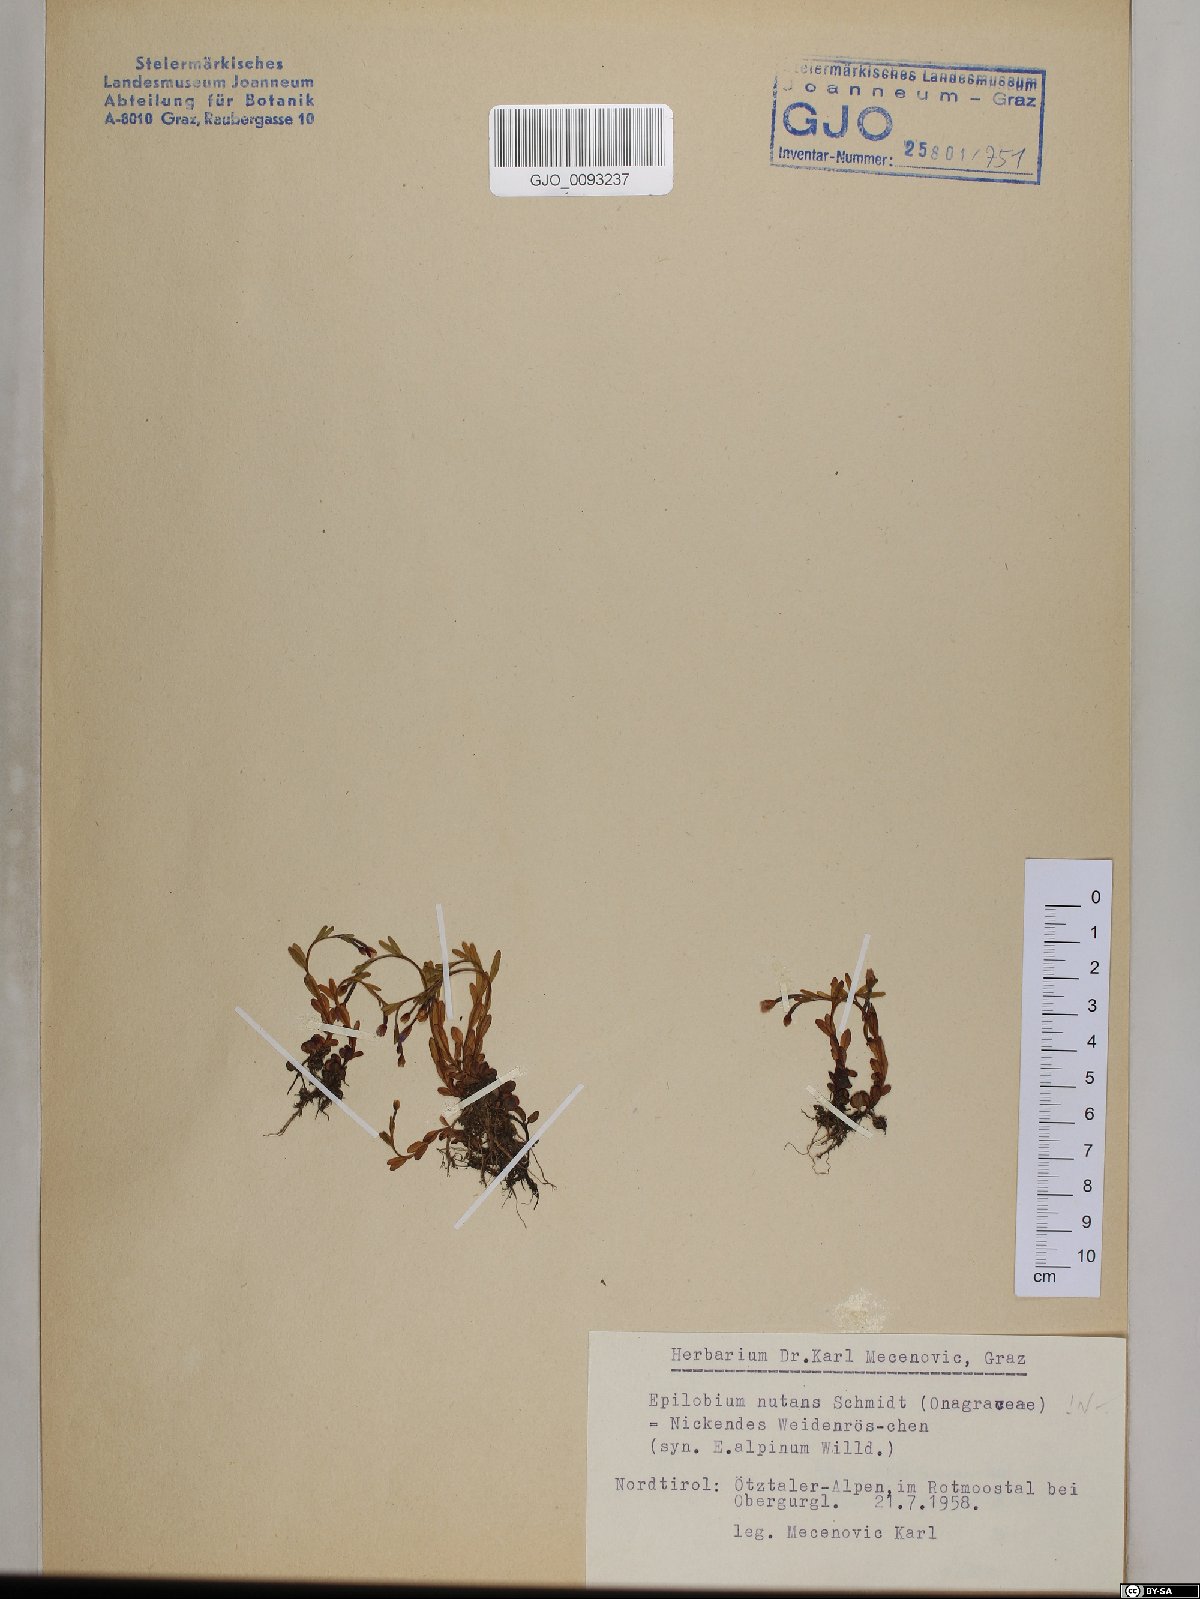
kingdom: Plantae
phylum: Tracheophyta
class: Magnoliopsida
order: Myrtales
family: Onagraceae
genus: Epilobium
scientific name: Epilobium nutans
